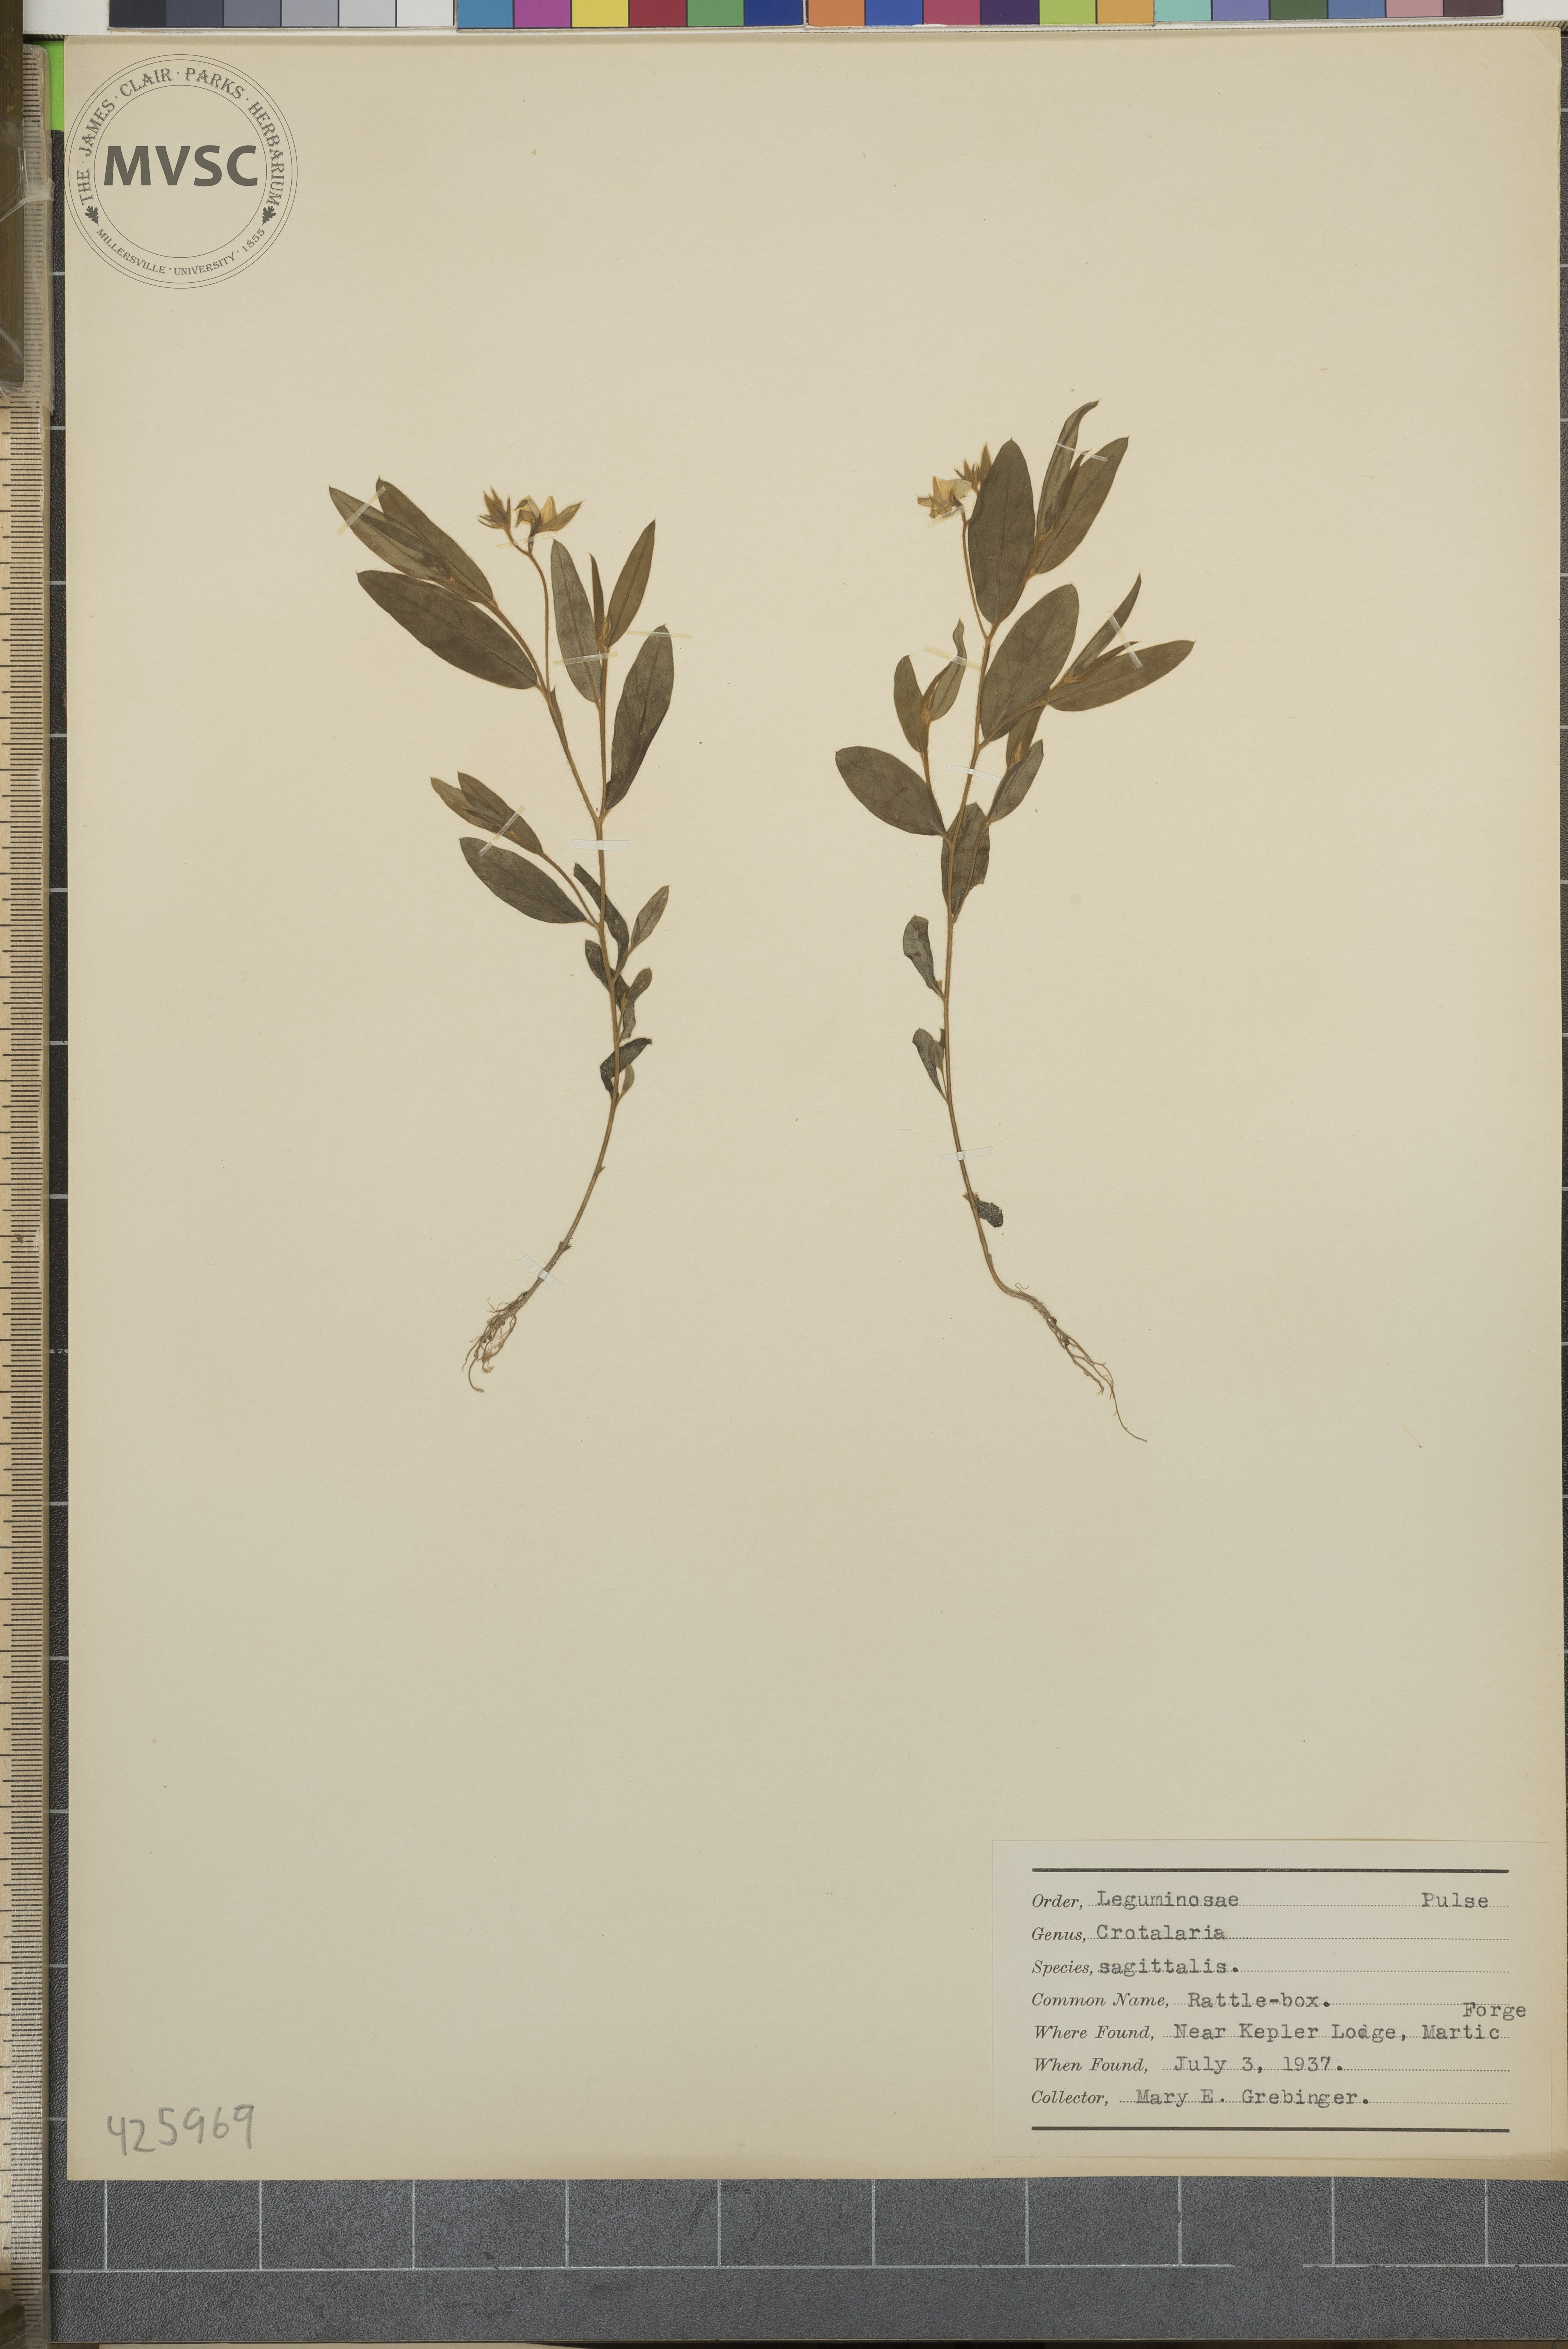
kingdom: Plantae
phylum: Tracheophyta
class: Magnoliopsida
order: Fabales
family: Fabaceae
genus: Crotalaria
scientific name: Crotalaria sagittalis
